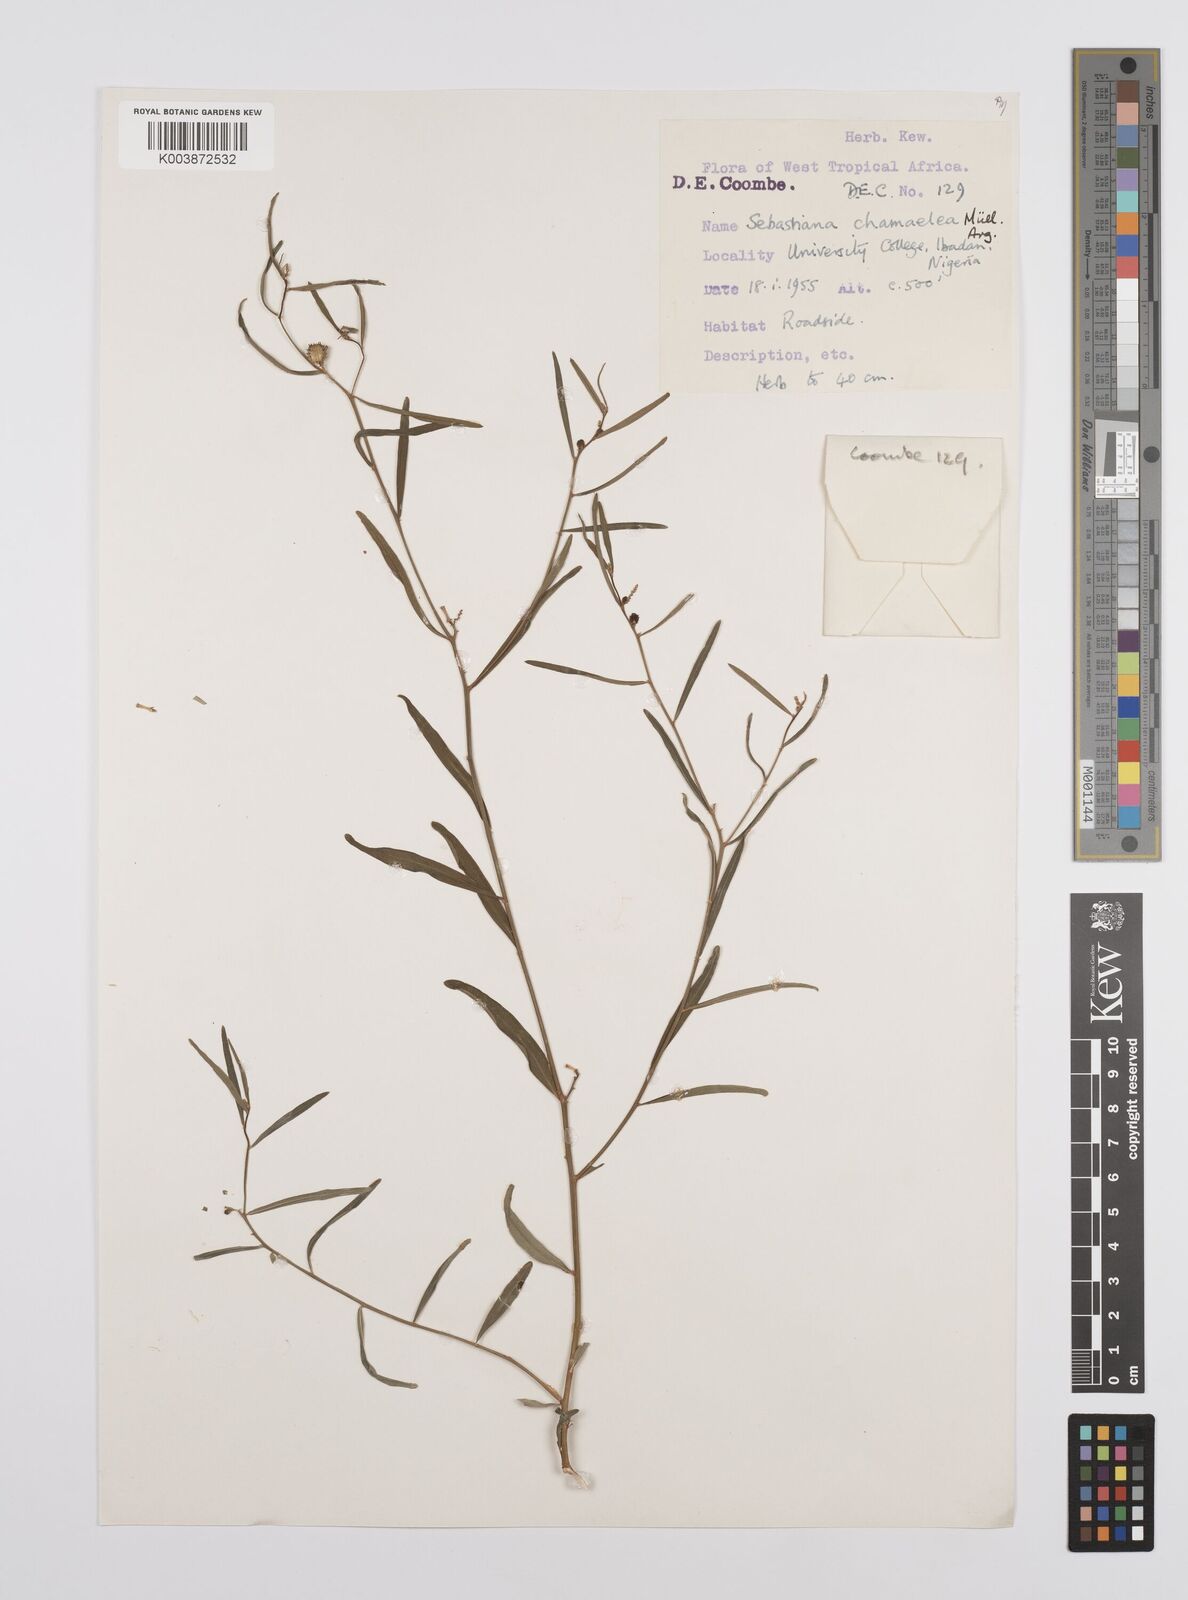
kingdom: Plantae
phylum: Tracheophyta
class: Magnoliopsida
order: Malpighiales
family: Euphorbiaceae
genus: Microstachys
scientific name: Microstachys chamaelea
